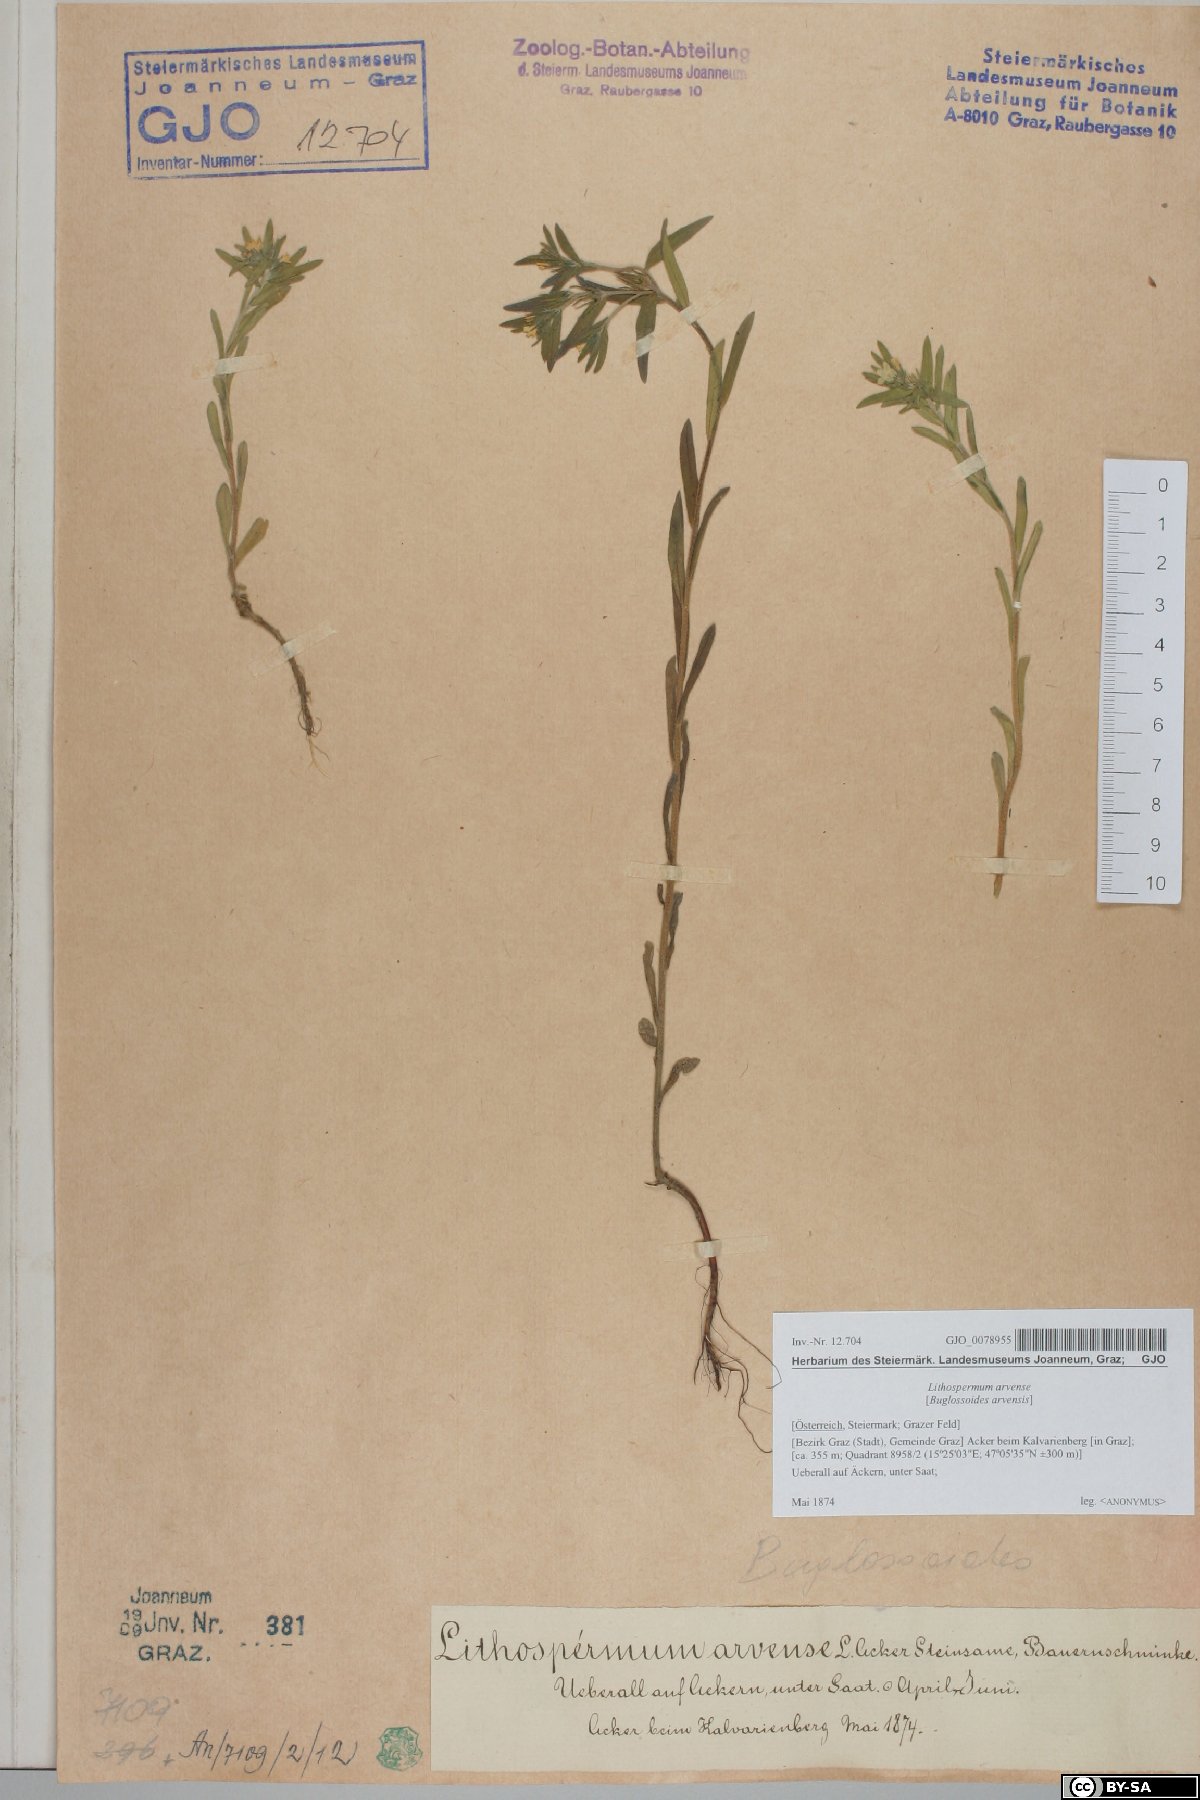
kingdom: Plantae
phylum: Tracheophyta
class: Magnoliopsida
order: Boraginales
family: Boraginaceae
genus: Buglossoides
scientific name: Buglossoides arvensis
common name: Corn gromwell
